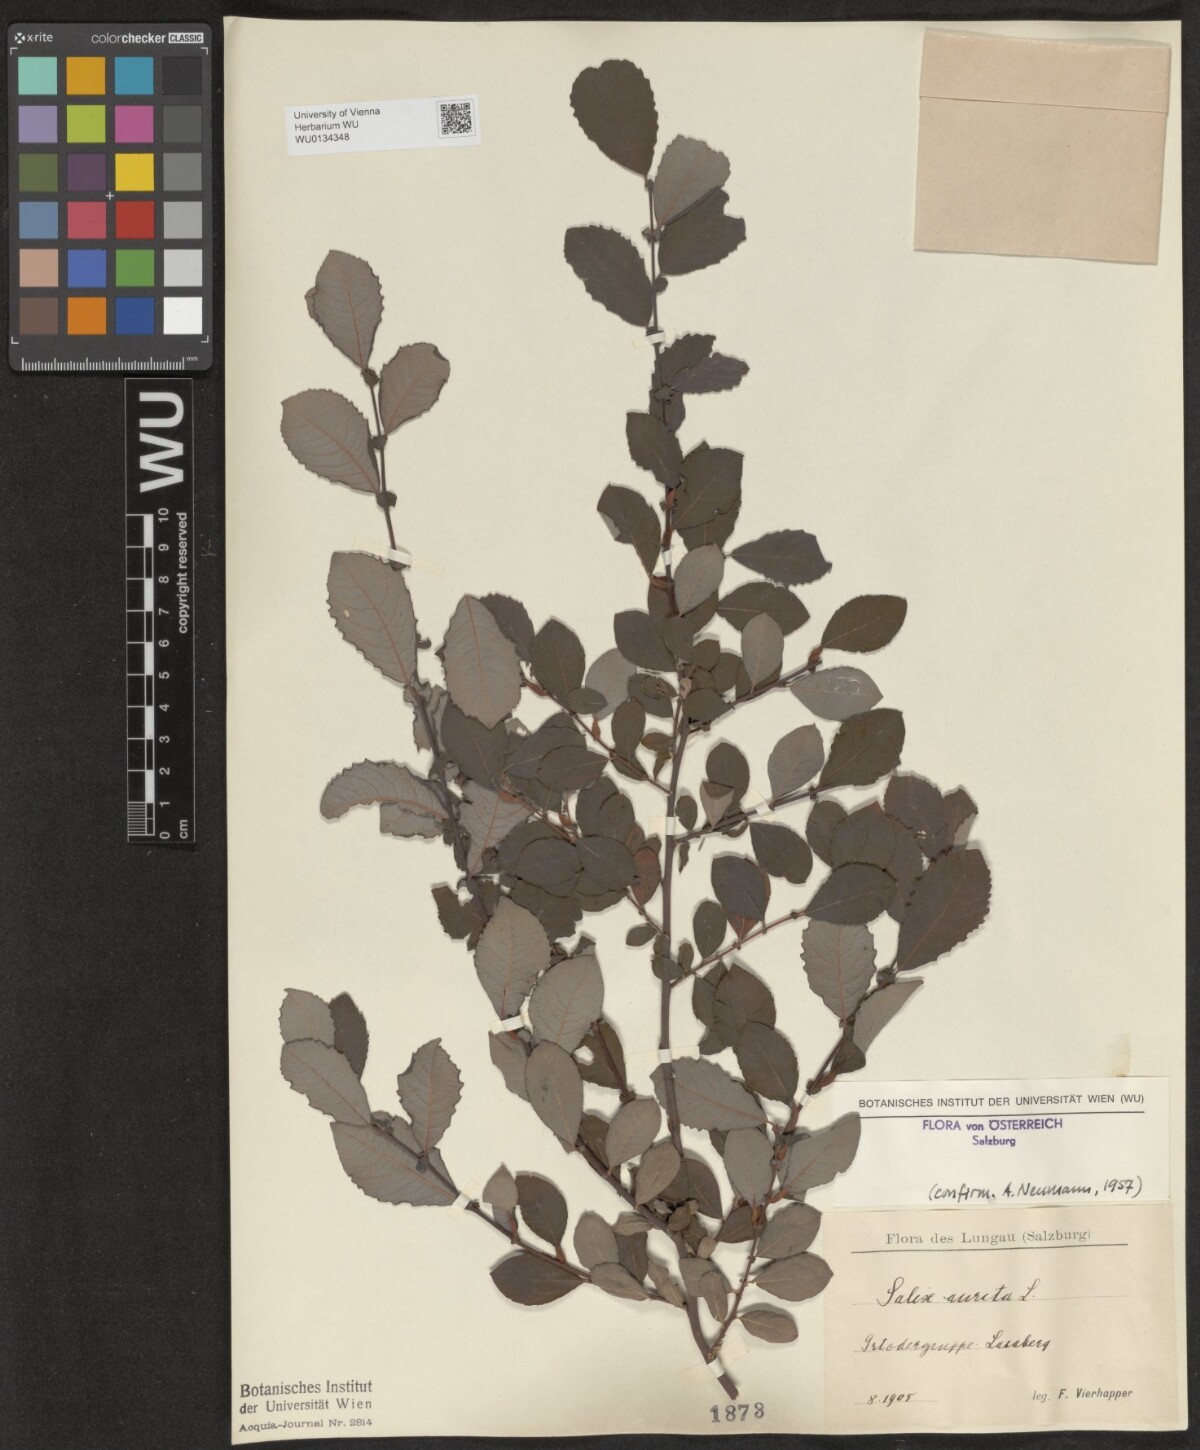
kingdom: Plantae
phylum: Tracheophyta
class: Magnoliopsida
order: Malpighiales
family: Salicaceae
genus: Salix
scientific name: Salix aurita
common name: Eared willow
